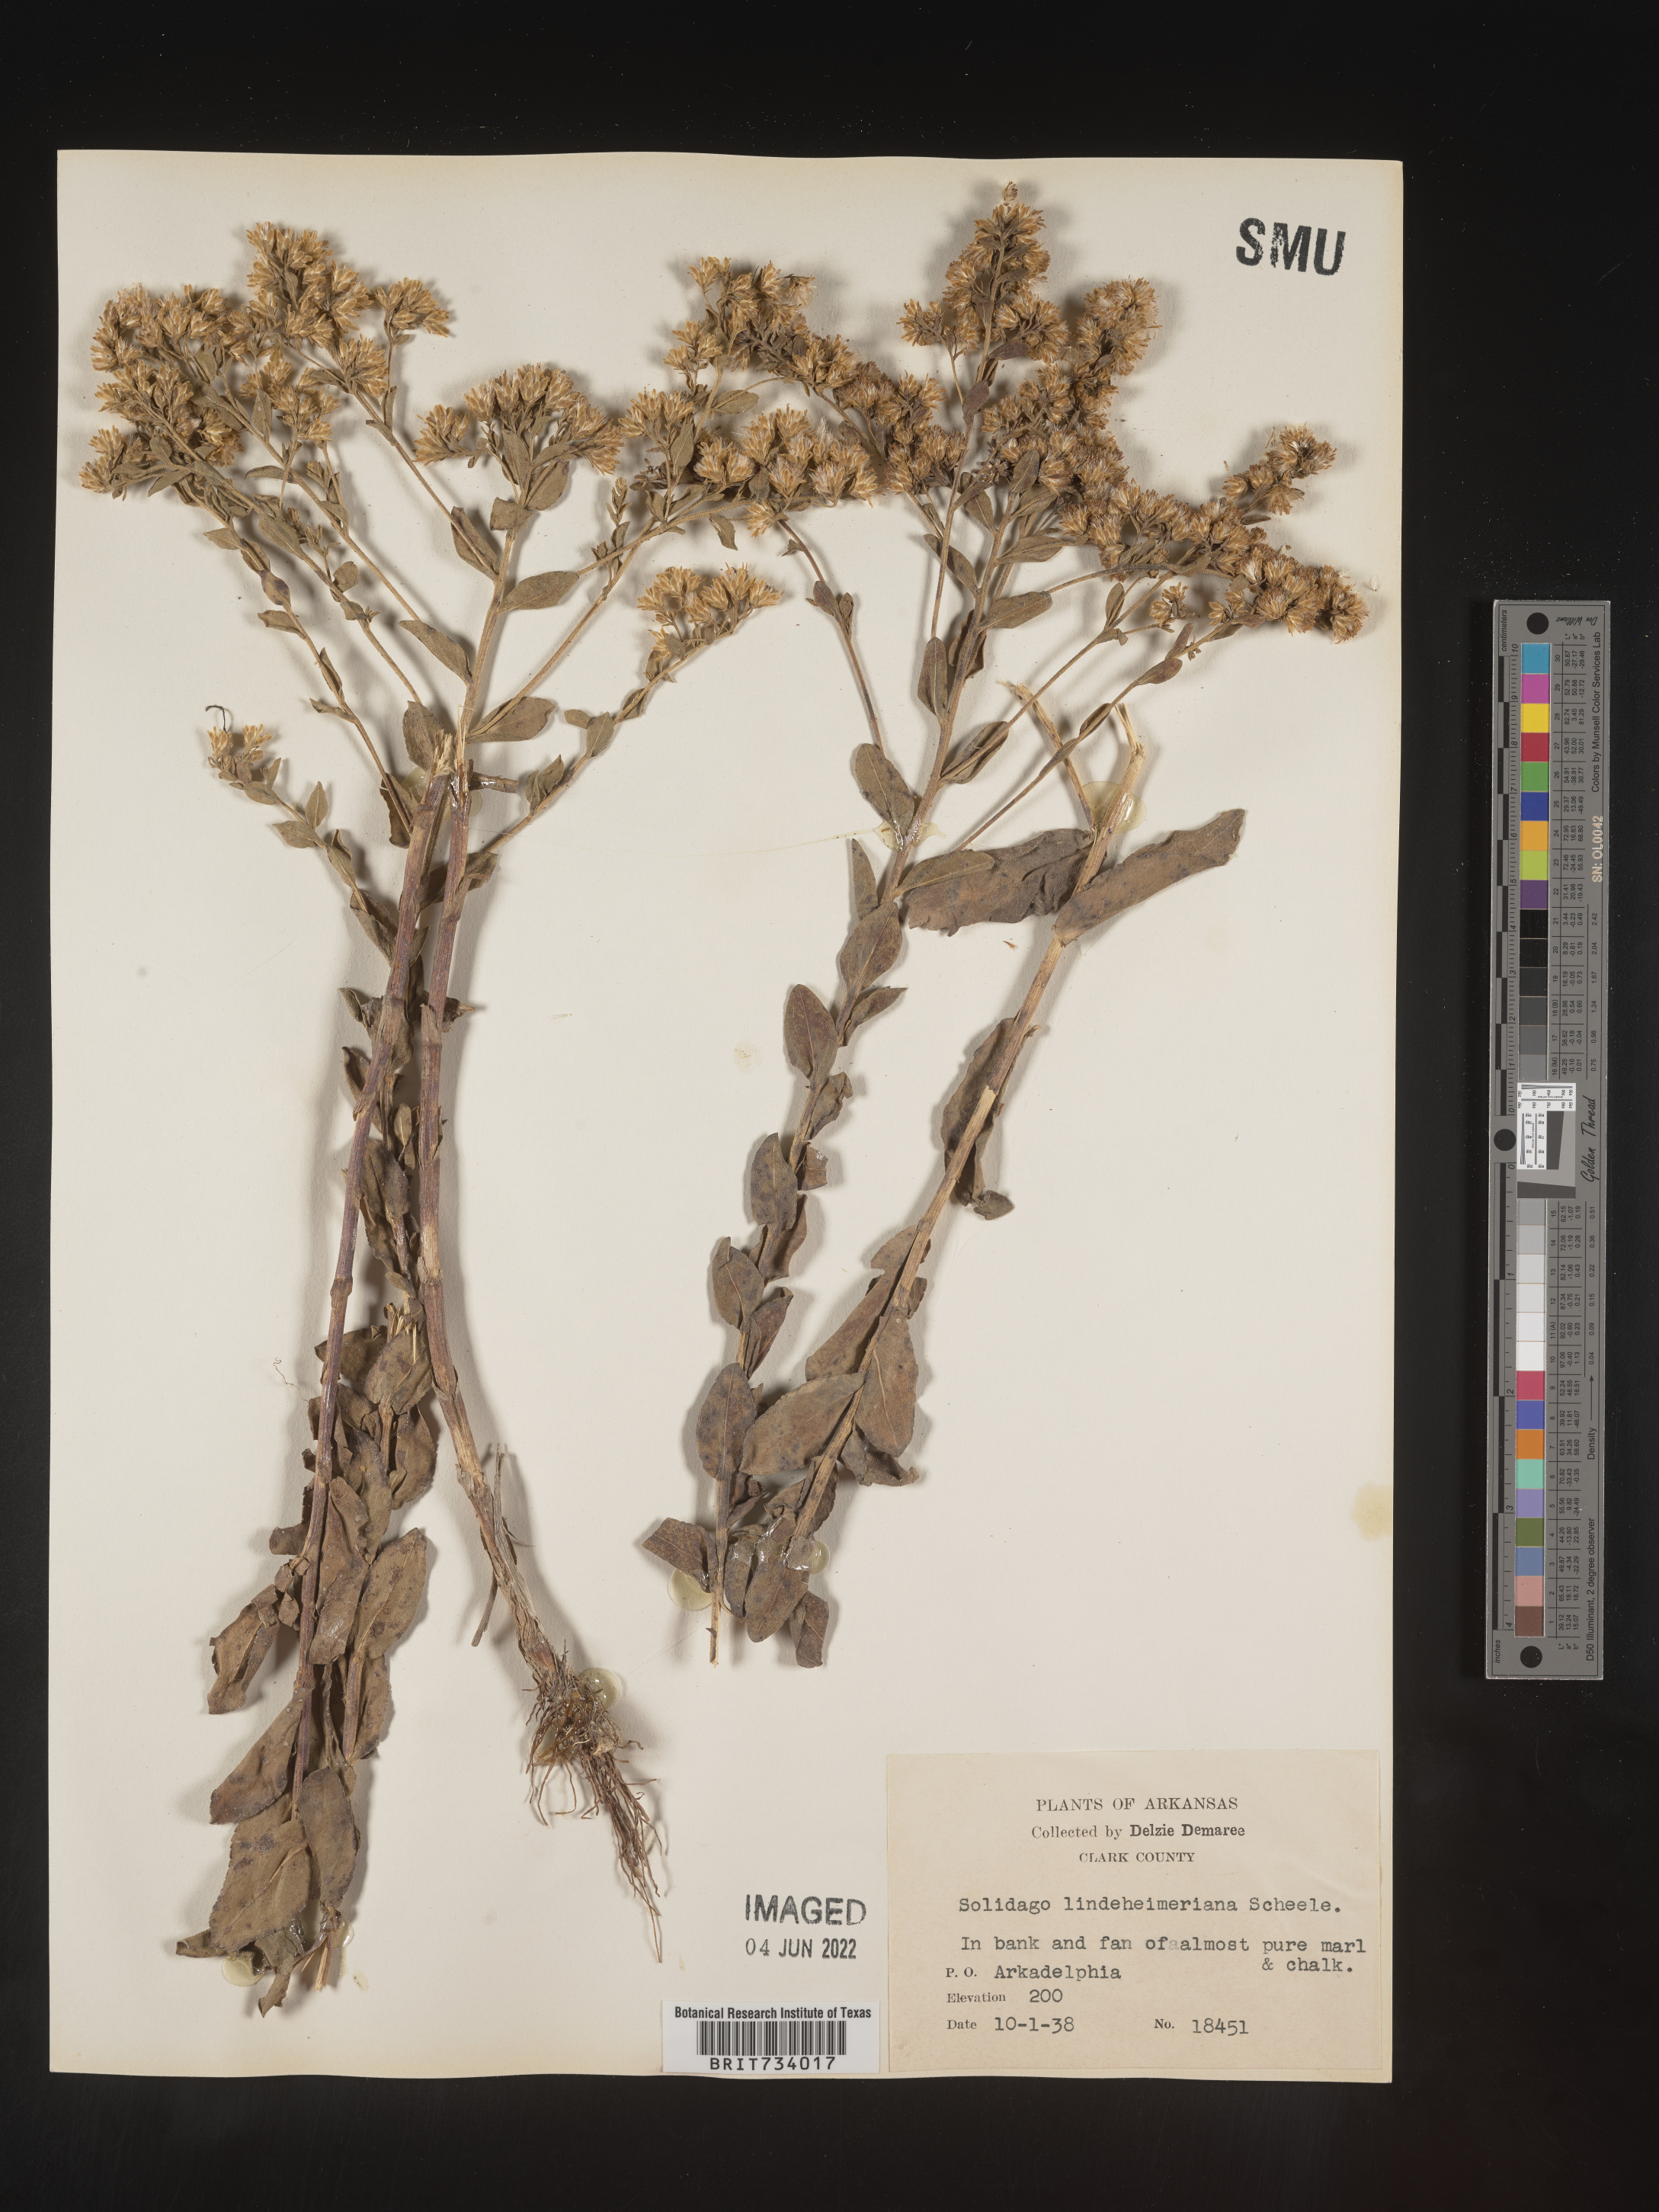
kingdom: Plantae
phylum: Tracheophyta
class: Magnoliopsida
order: Asterales
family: Asteraceae
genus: Solidago
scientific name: Solidago rigida
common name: Rigid goldenrod
